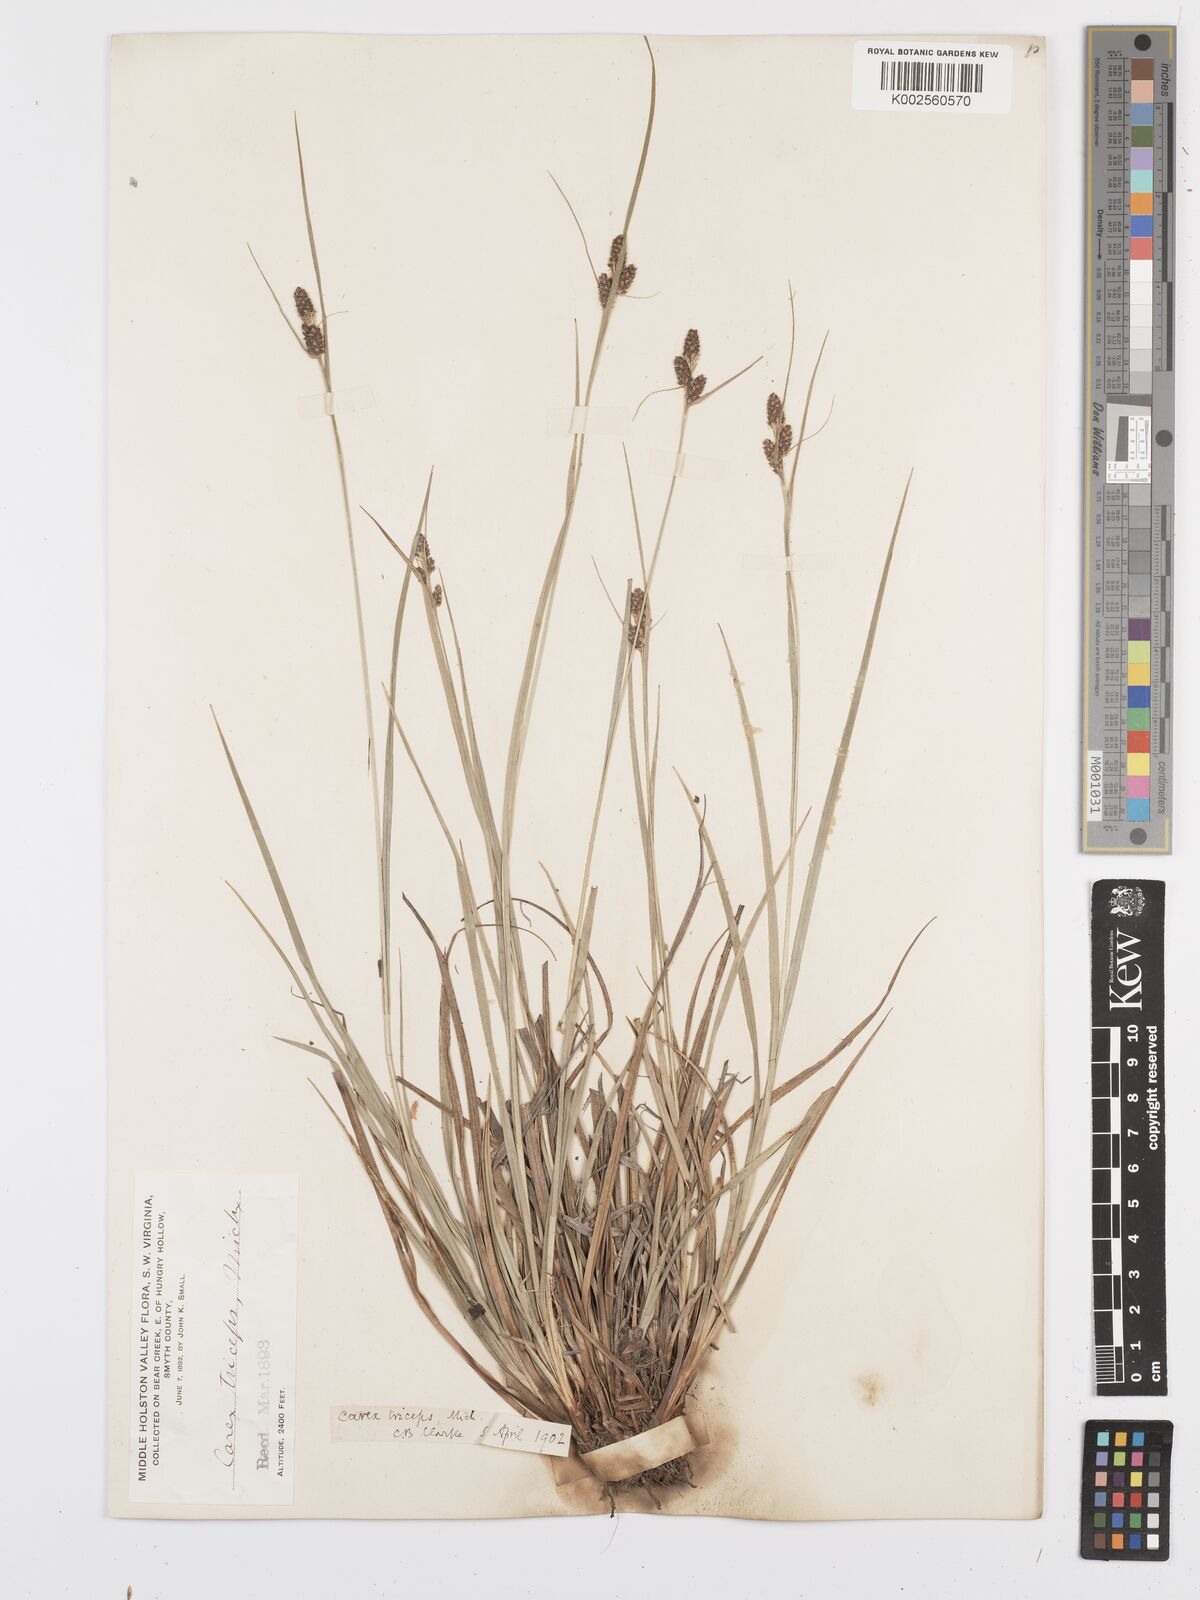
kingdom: Plantae
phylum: Tracheophyta
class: Liliopsida
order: Poales
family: Cyperaceae
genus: Carex
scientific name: Carex complanata
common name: Hirsute sedge
